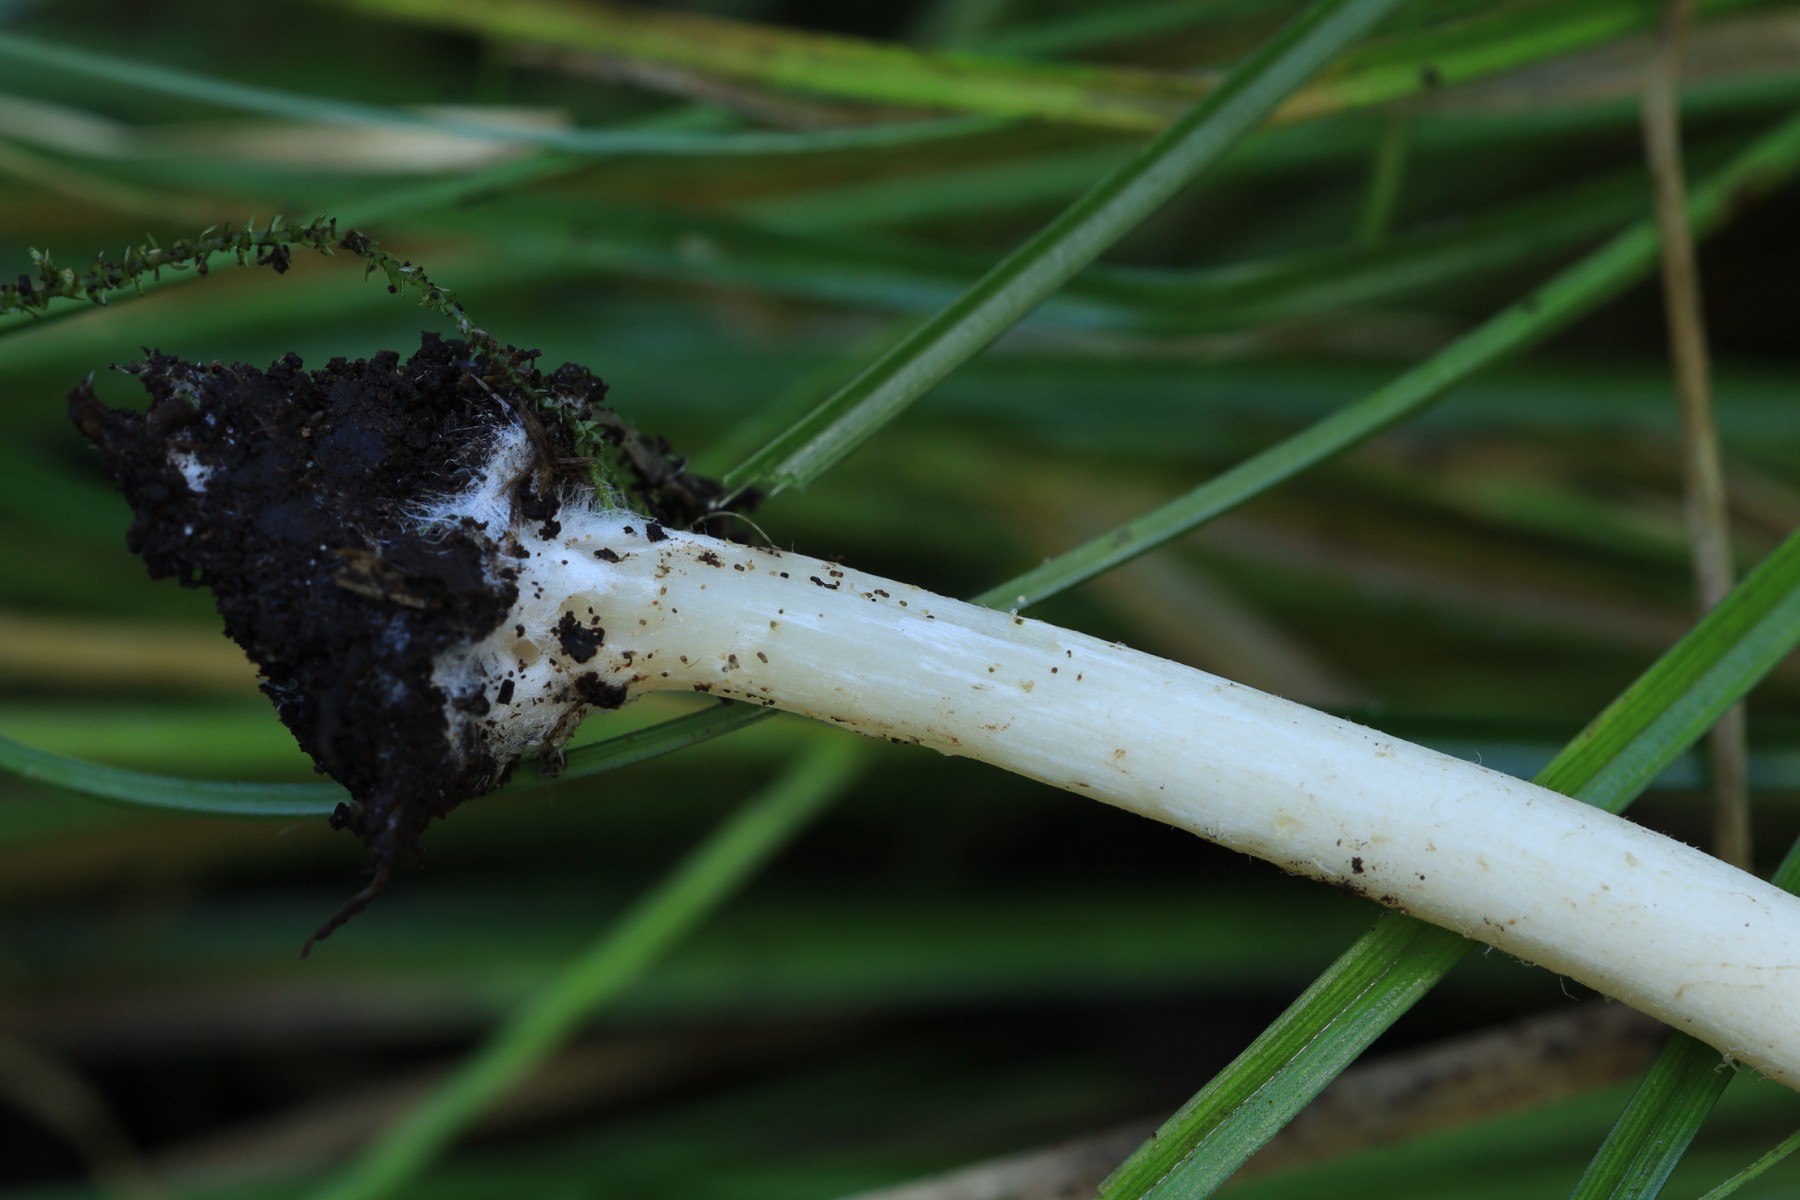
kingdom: Fungi
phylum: Basidiomycota
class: Agaricomycetes
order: Agaricales
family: Psathyrellaceae
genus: Candolleomyces
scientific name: Candolleomyces candolleanus
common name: Candolles mørkhat
